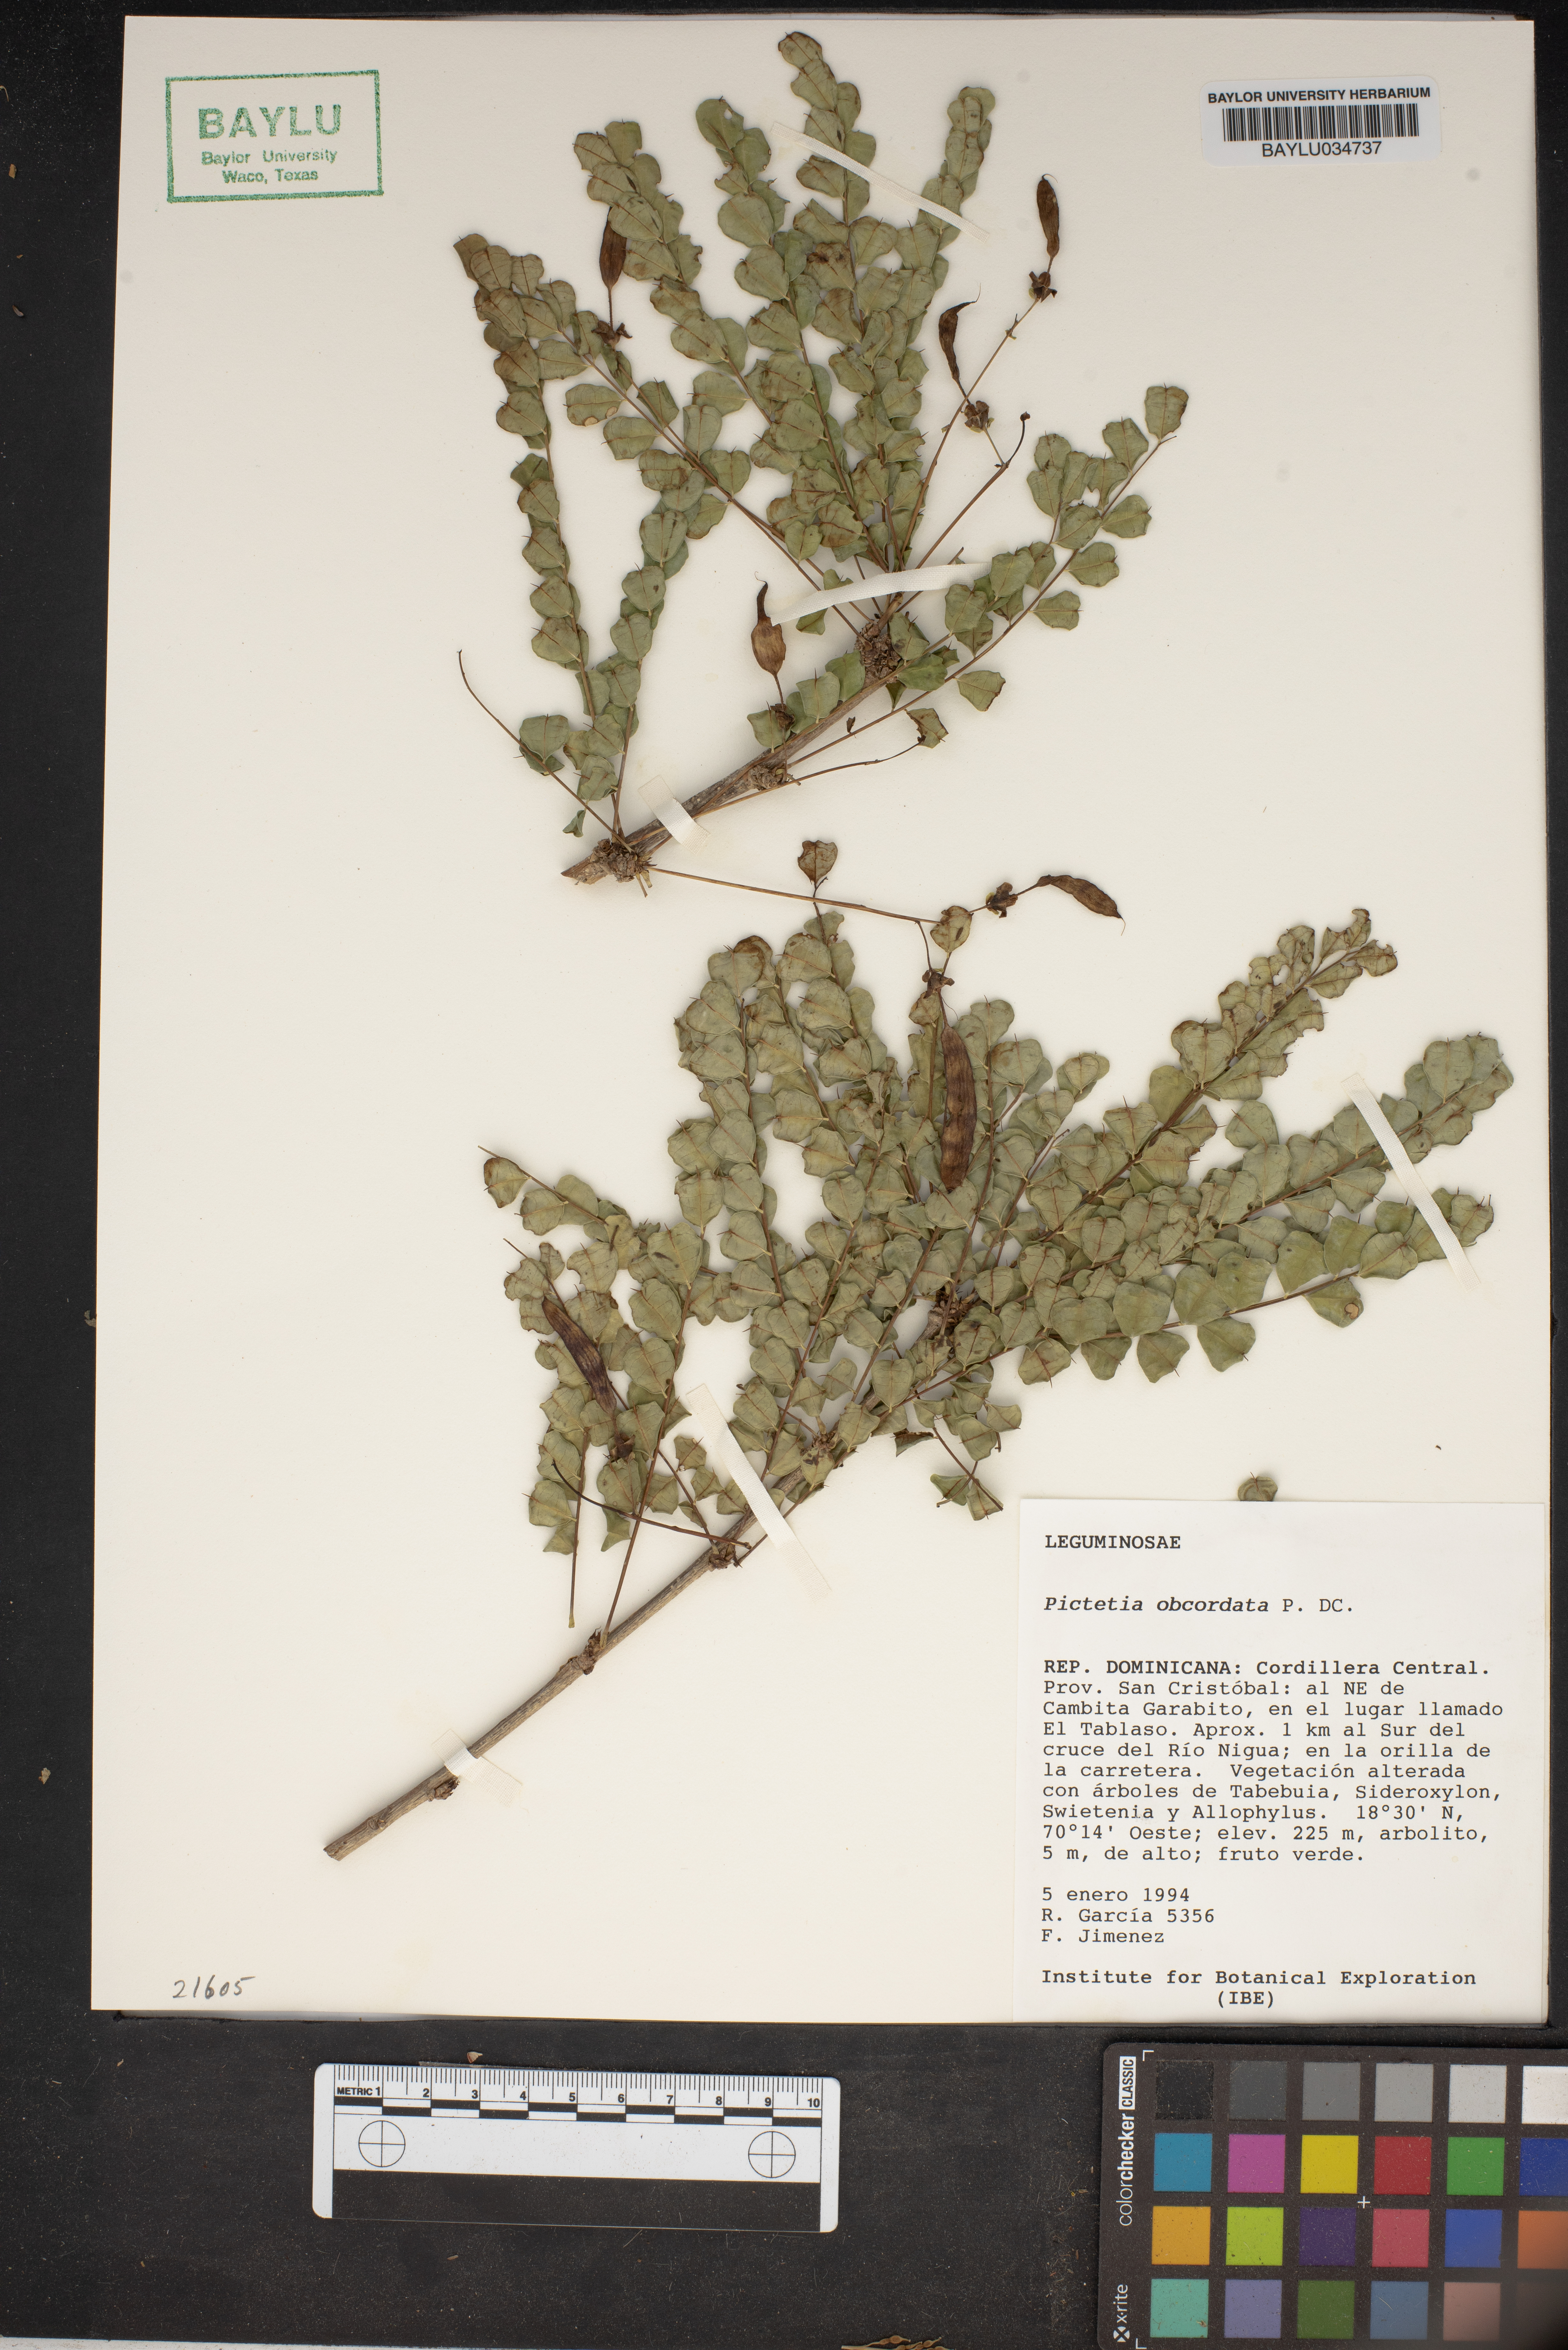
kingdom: Plantae
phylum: Tracheophyta
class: Magnoliopsida
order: Fabales
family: Fabaceae
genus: Pictetia
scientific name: Pictetia obcordata
